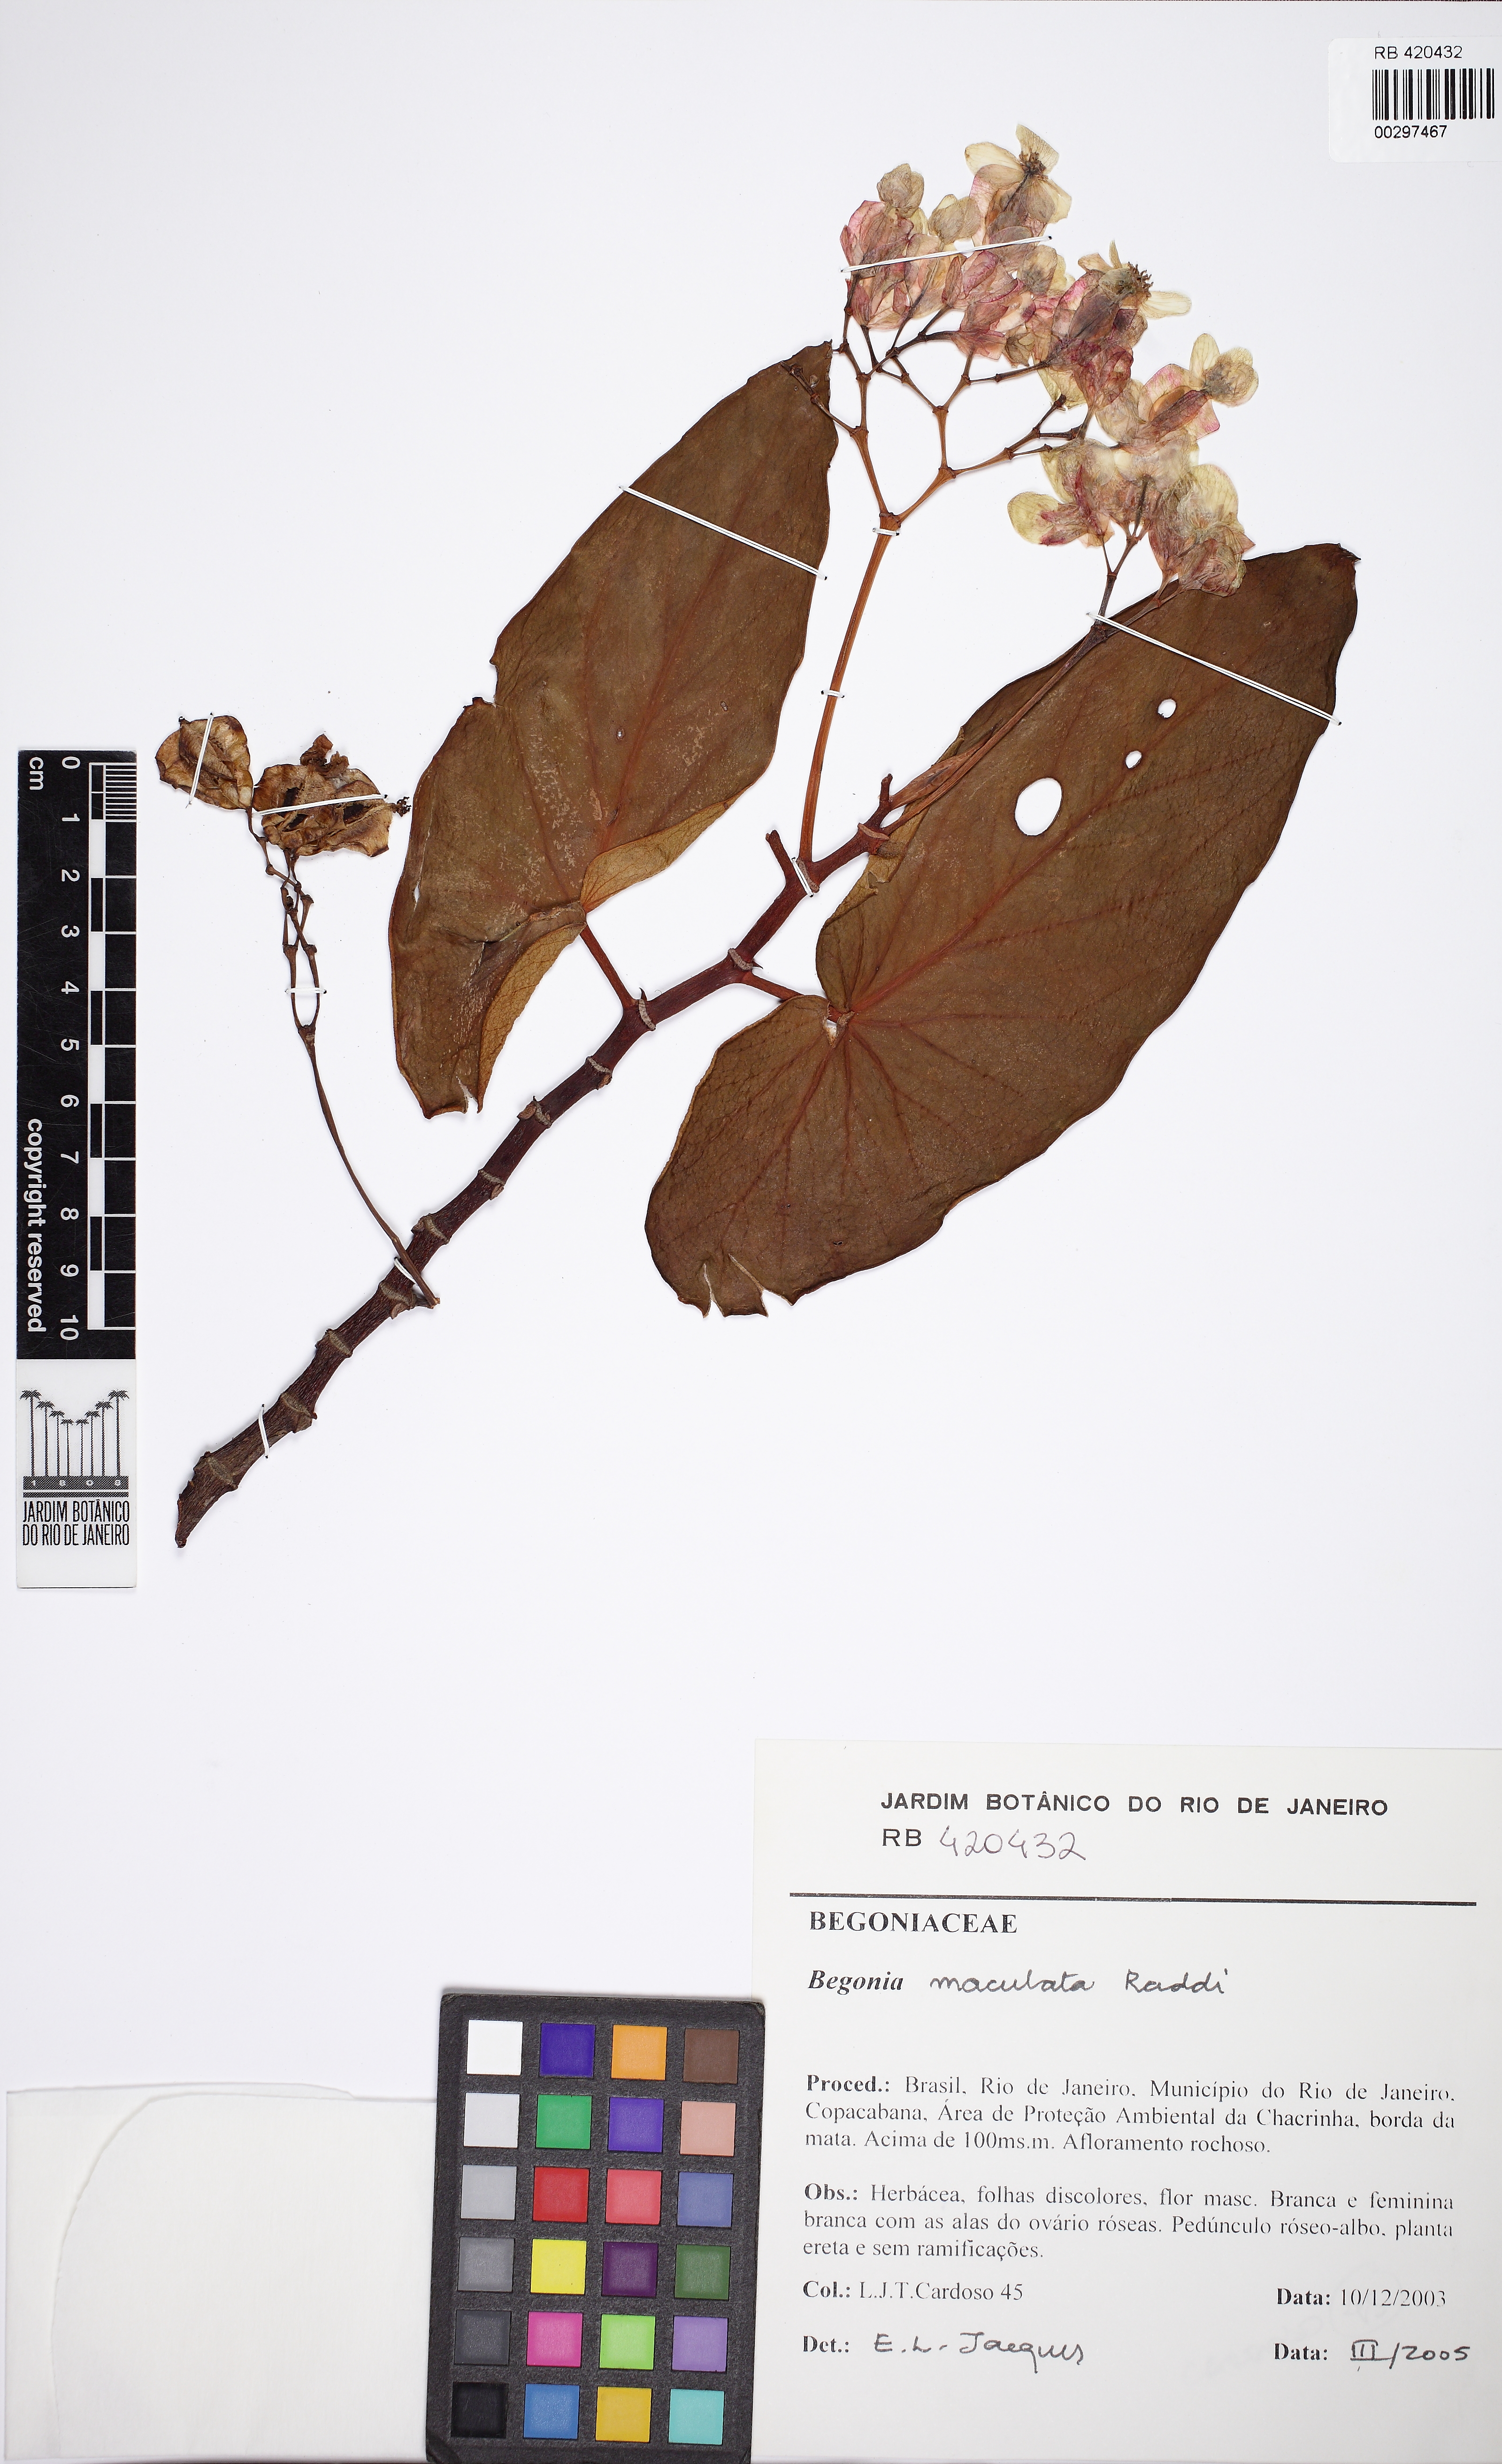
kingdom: Plantae
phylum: Tracheophyta
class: Liliopsida
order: Poales
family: Poaceae
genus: Olyra
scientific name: Olyra latifolia
